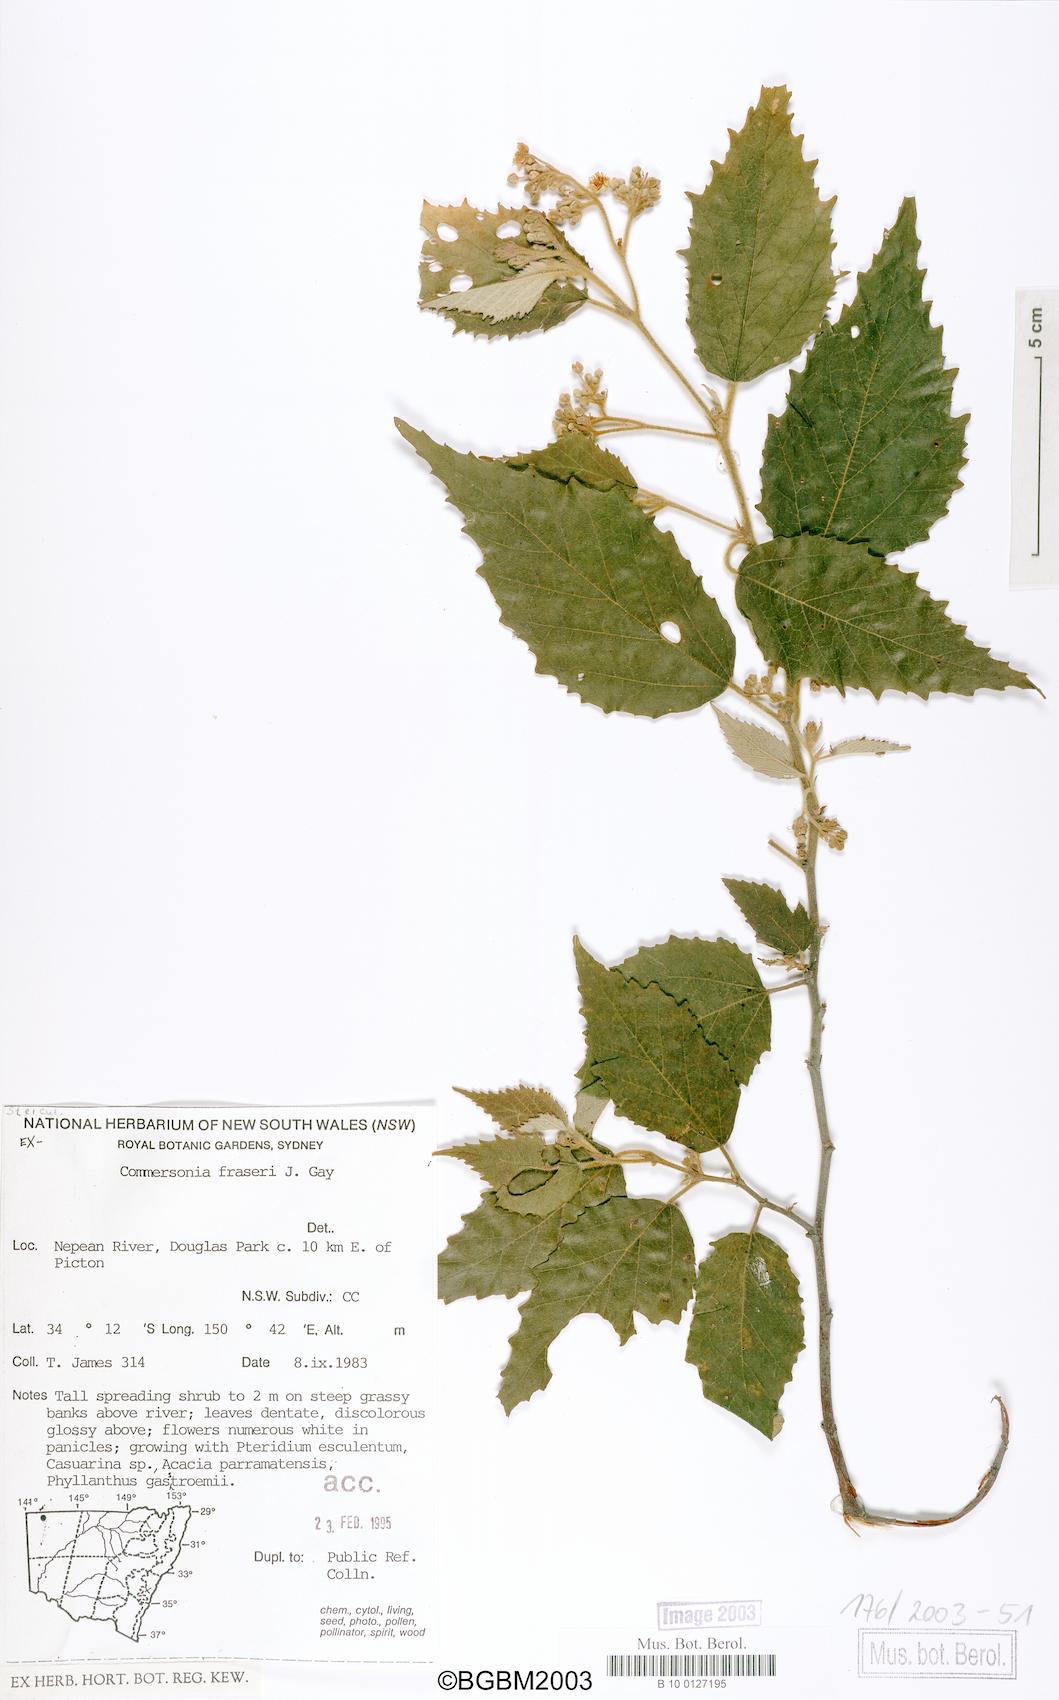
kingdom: Plantae
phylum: Tracheophyta
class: Magnoliopsida
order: Malvales
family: Malvaceae
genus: Androcalva
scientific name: Androcalva fraseri
